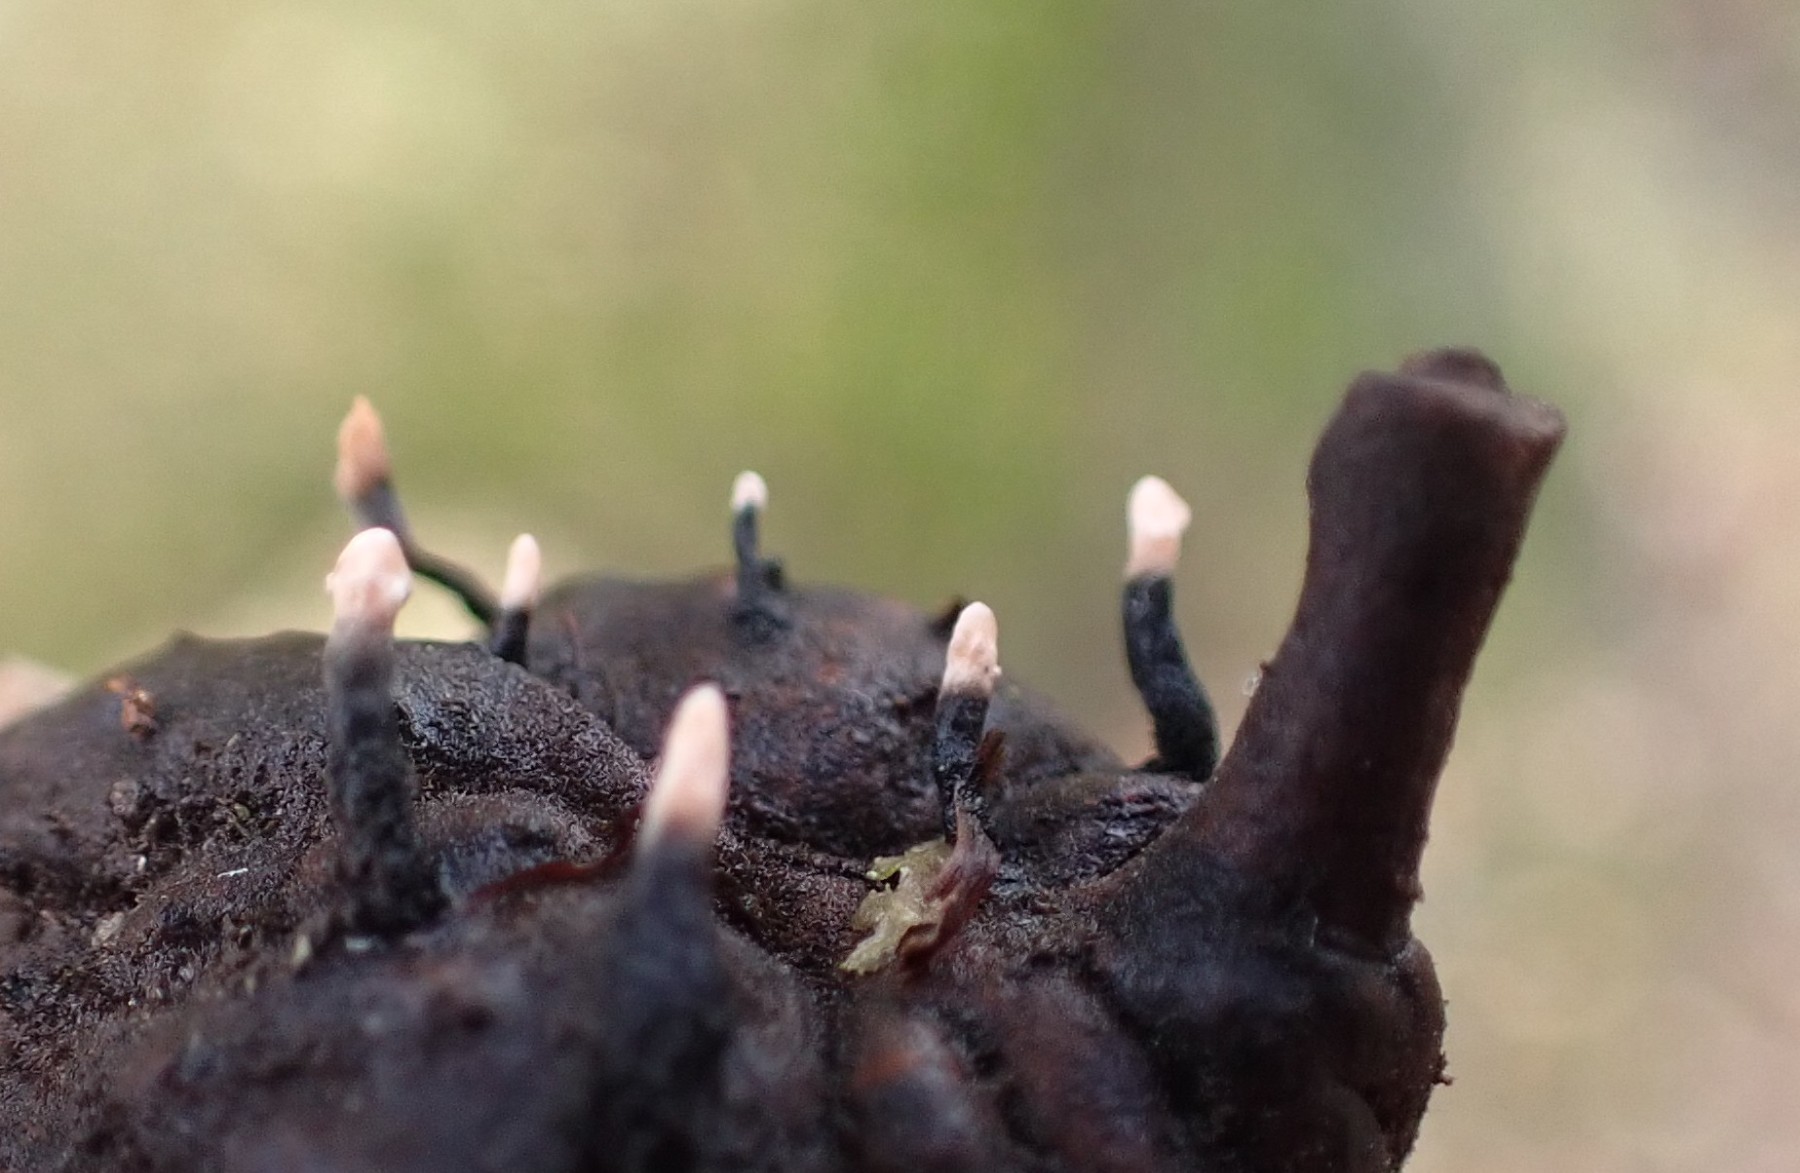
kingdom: Fungi
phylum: Ascomycota
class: Sordariomycetes
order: Xylariales
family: Xylariaceae
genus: Xylaria
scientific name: Xylaria carpophila
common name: bogskål-stødsvamp
